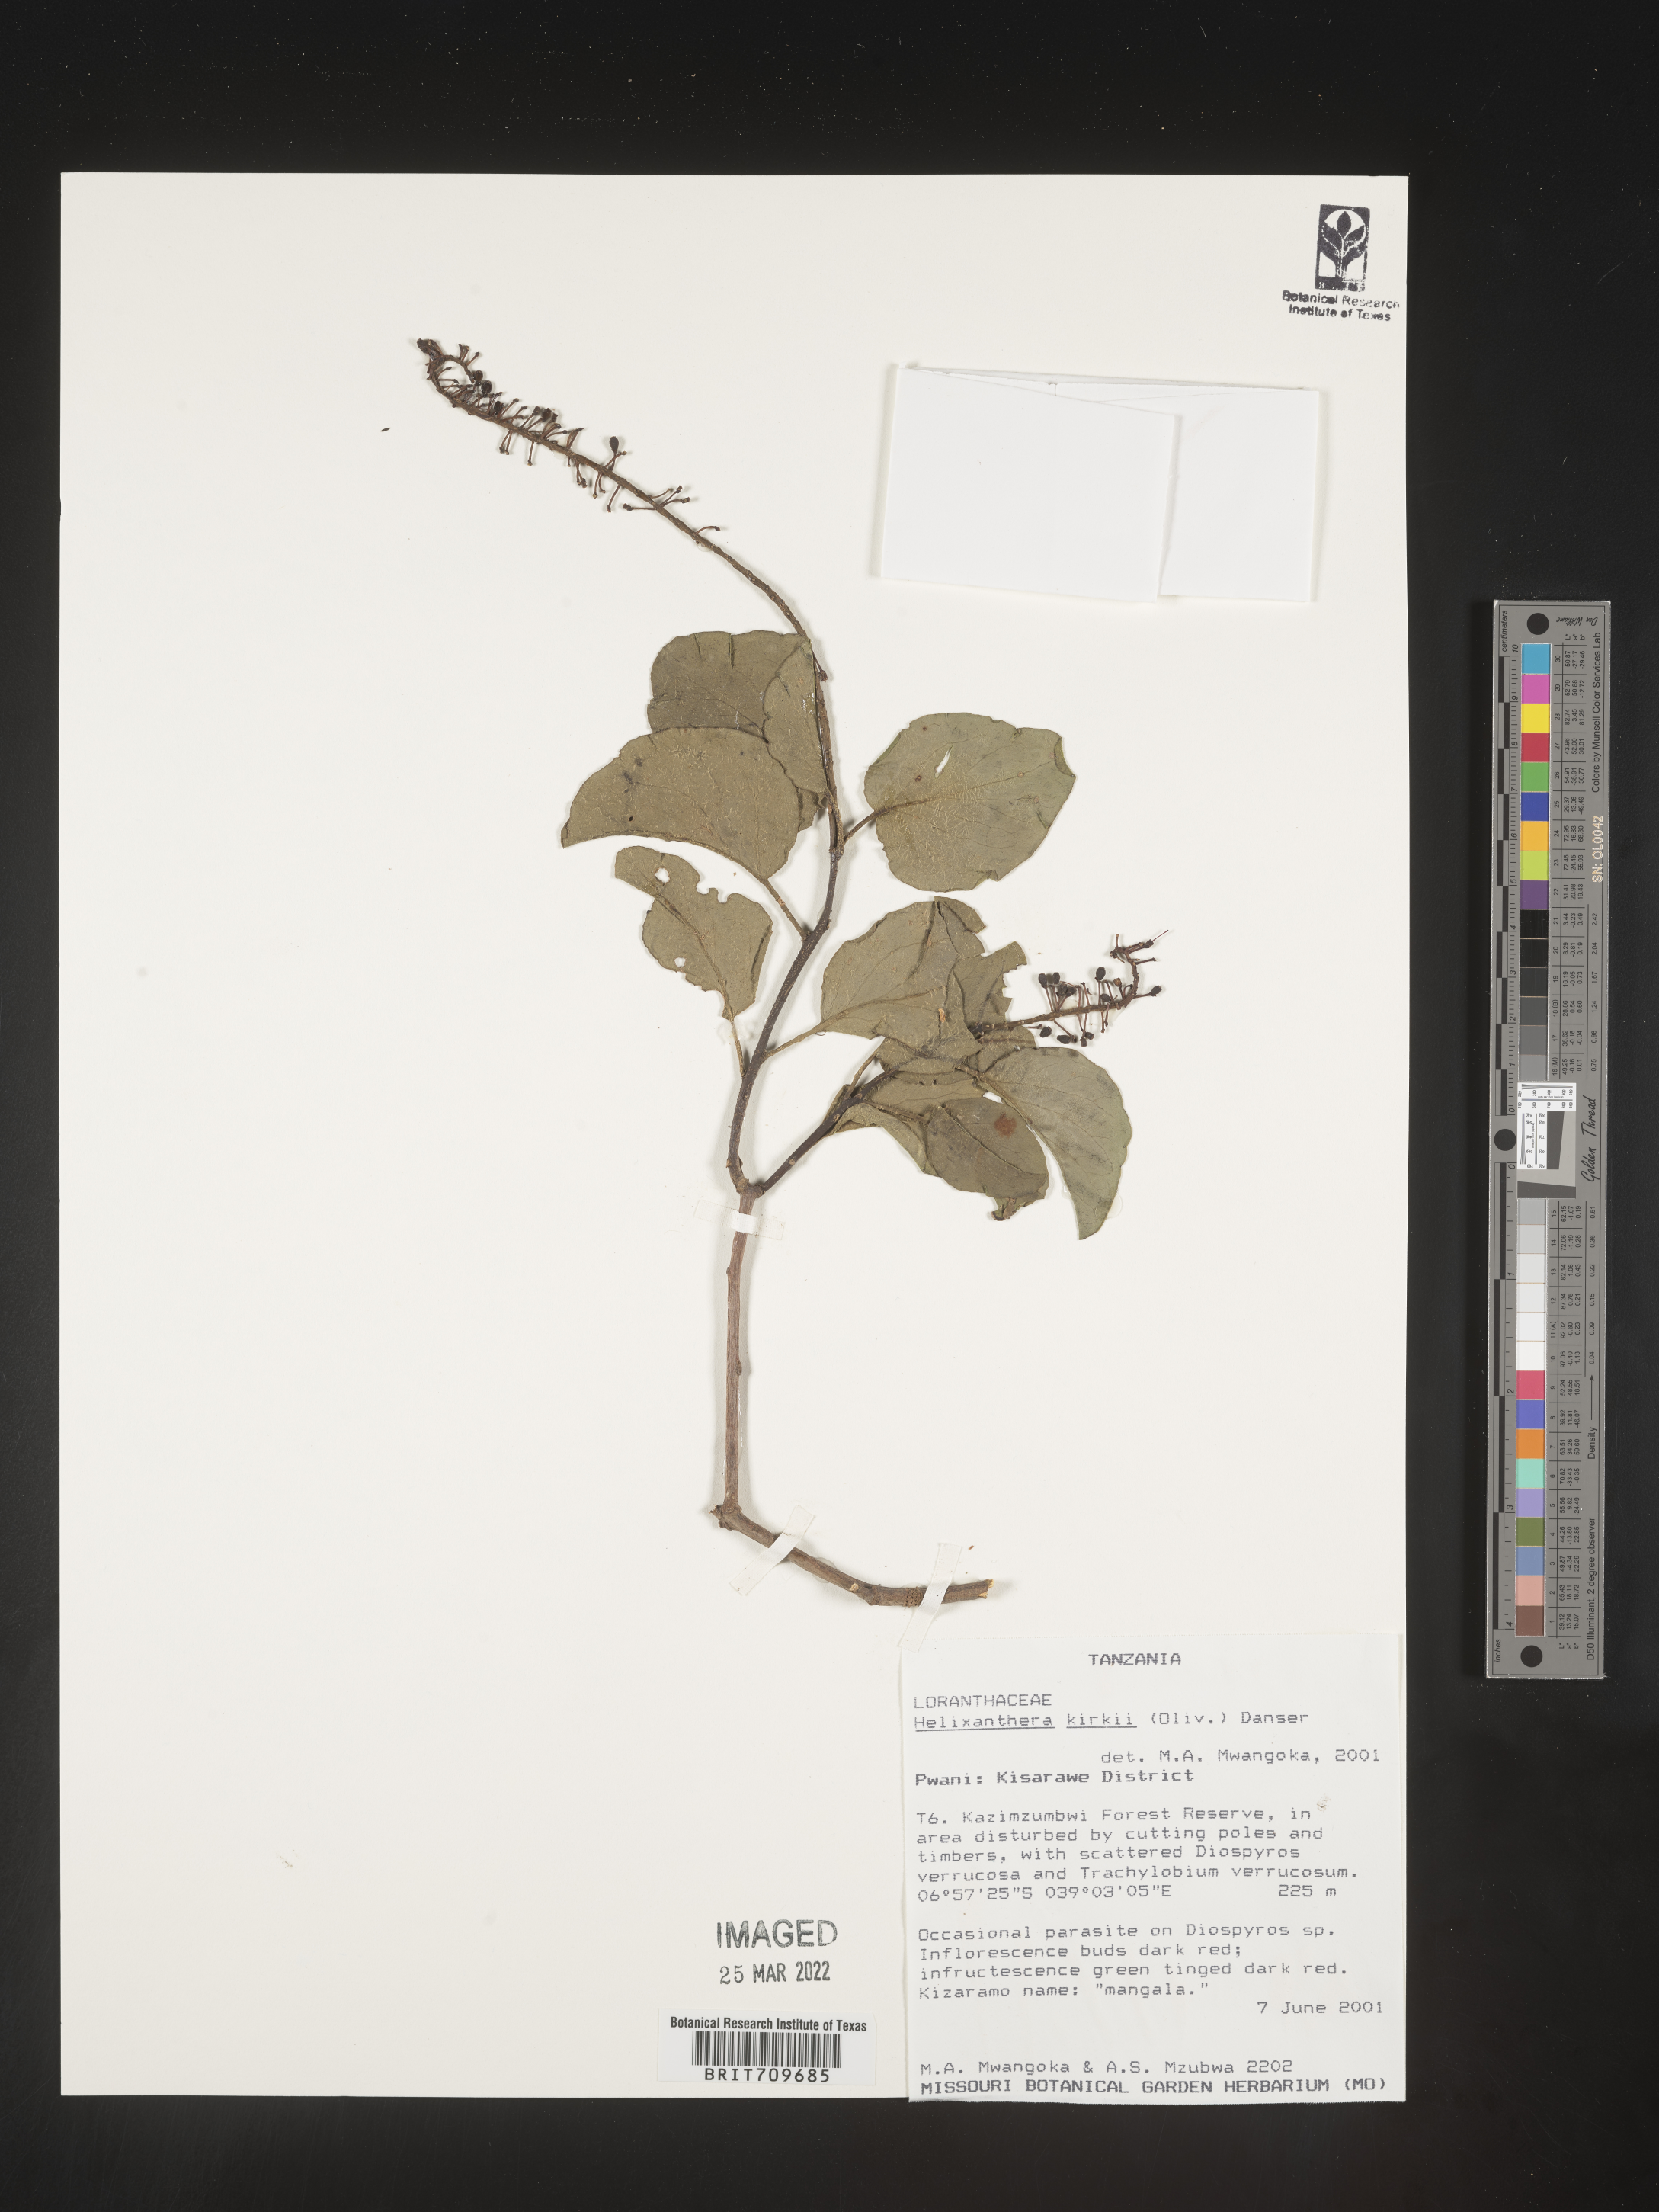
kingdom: Plantae
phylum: Tracheophyta
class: Magnoliopsida
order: Santalales
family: Loranthaceae
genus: Helixanthera
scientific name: Helixanthera
